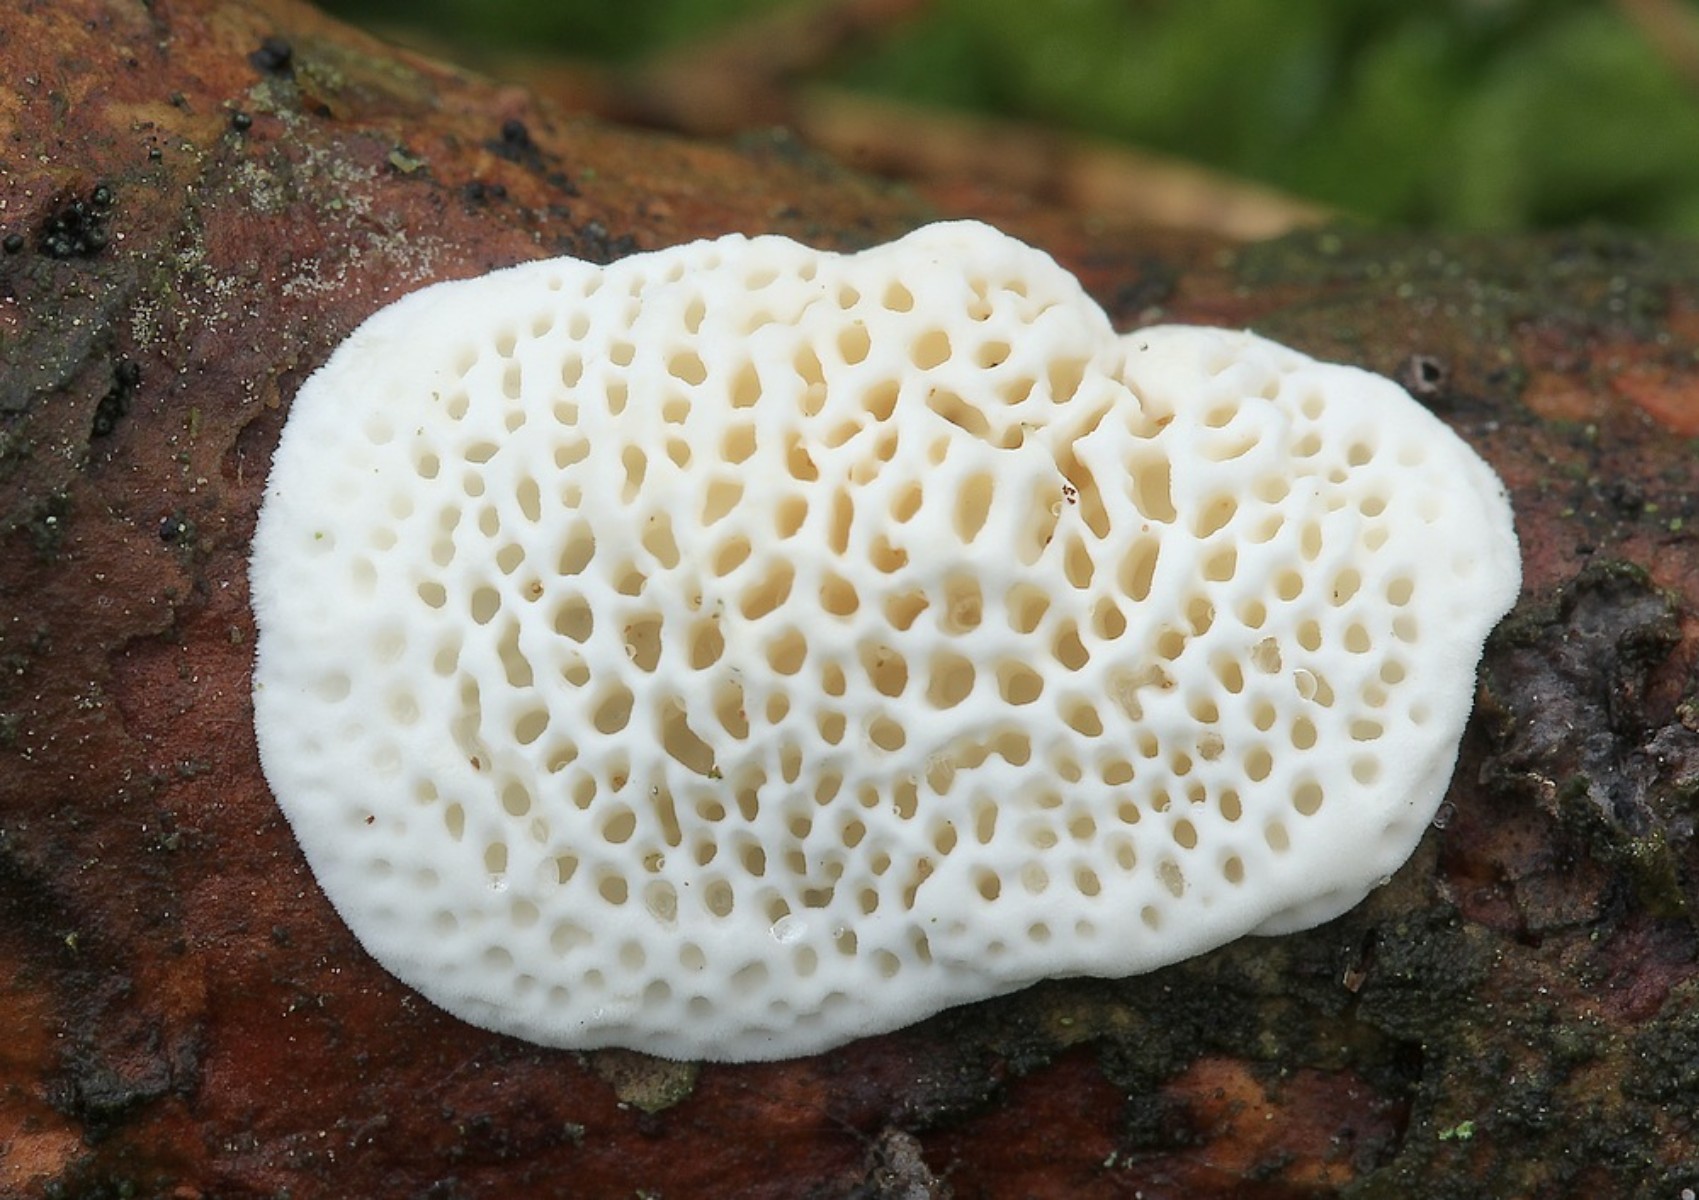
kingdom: Fungi
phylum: Basidiomycota
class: Agaricomycetes
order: Polyporales
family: Fomitopsidaceae
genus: Fomitopsis
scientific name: Fomitopsis
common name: fyrre-skiveporesvamp
